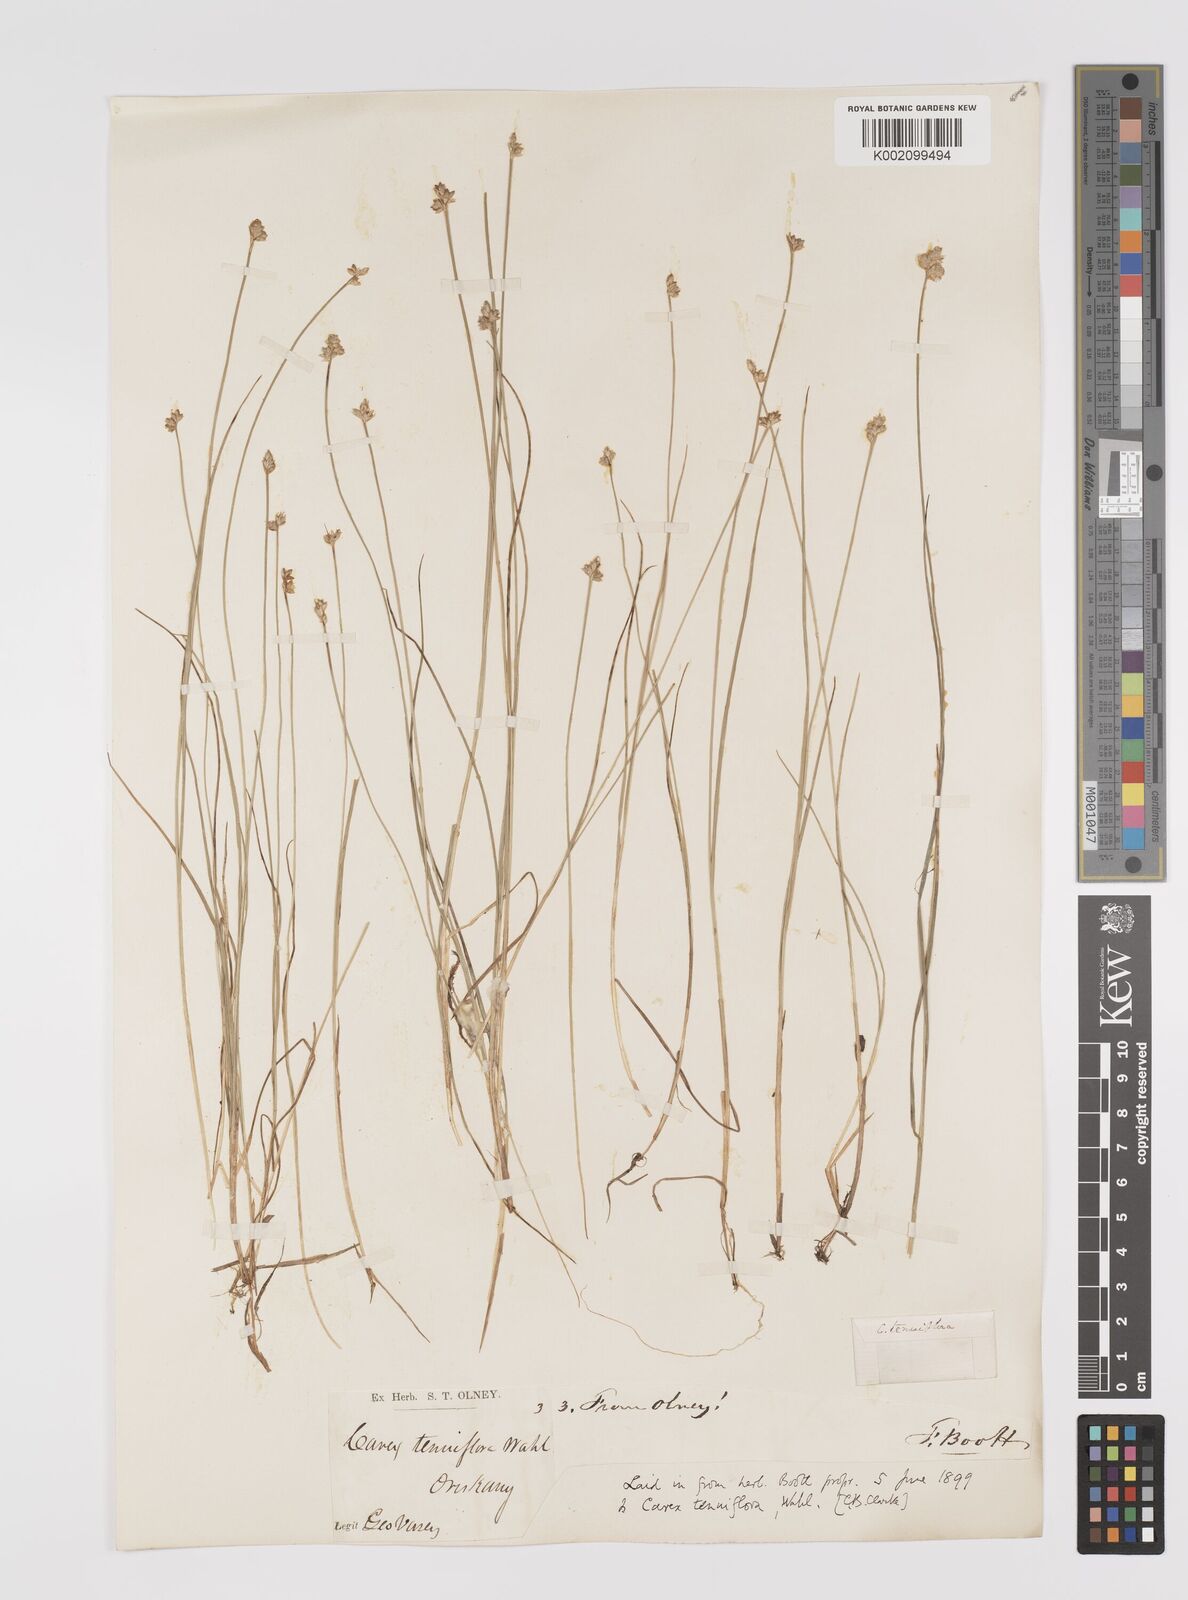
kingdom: Plantae
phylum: Tracheophyta
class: Liliopsida
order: Poales
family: Cyperaceae
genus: Carex
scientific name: Carex tenuiflora
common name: Sparse-flowered sedge
